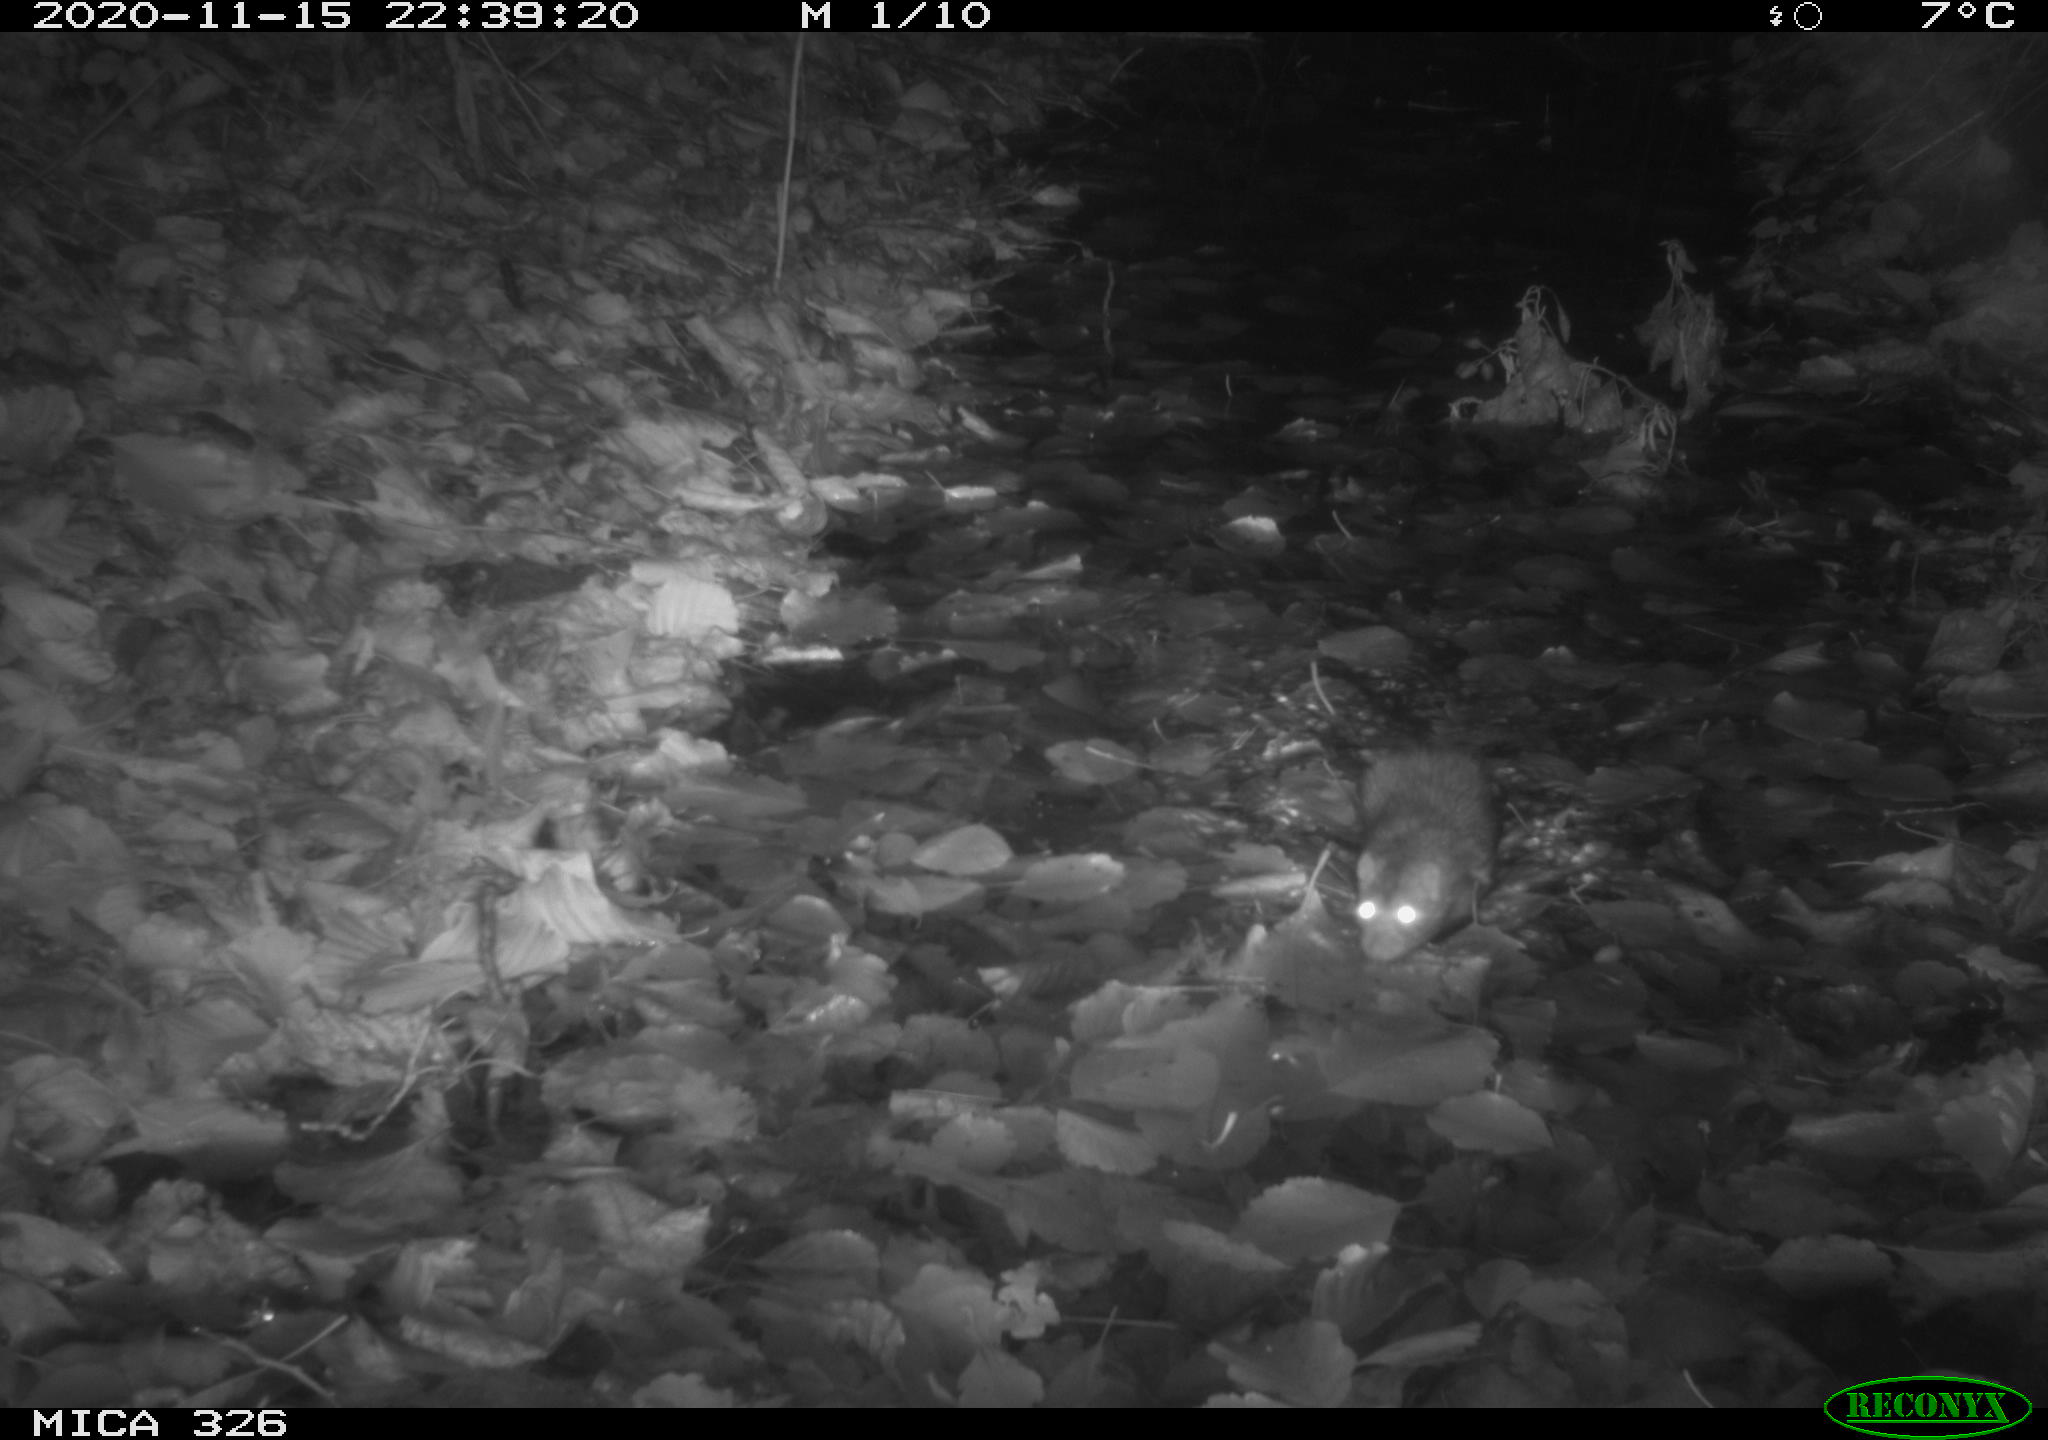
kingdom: Animalia
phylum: Chordata
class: Mammalia
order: Rodentia
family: Muridae
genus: Rattus
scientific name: Rattus norvegicus
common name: Brown rat
